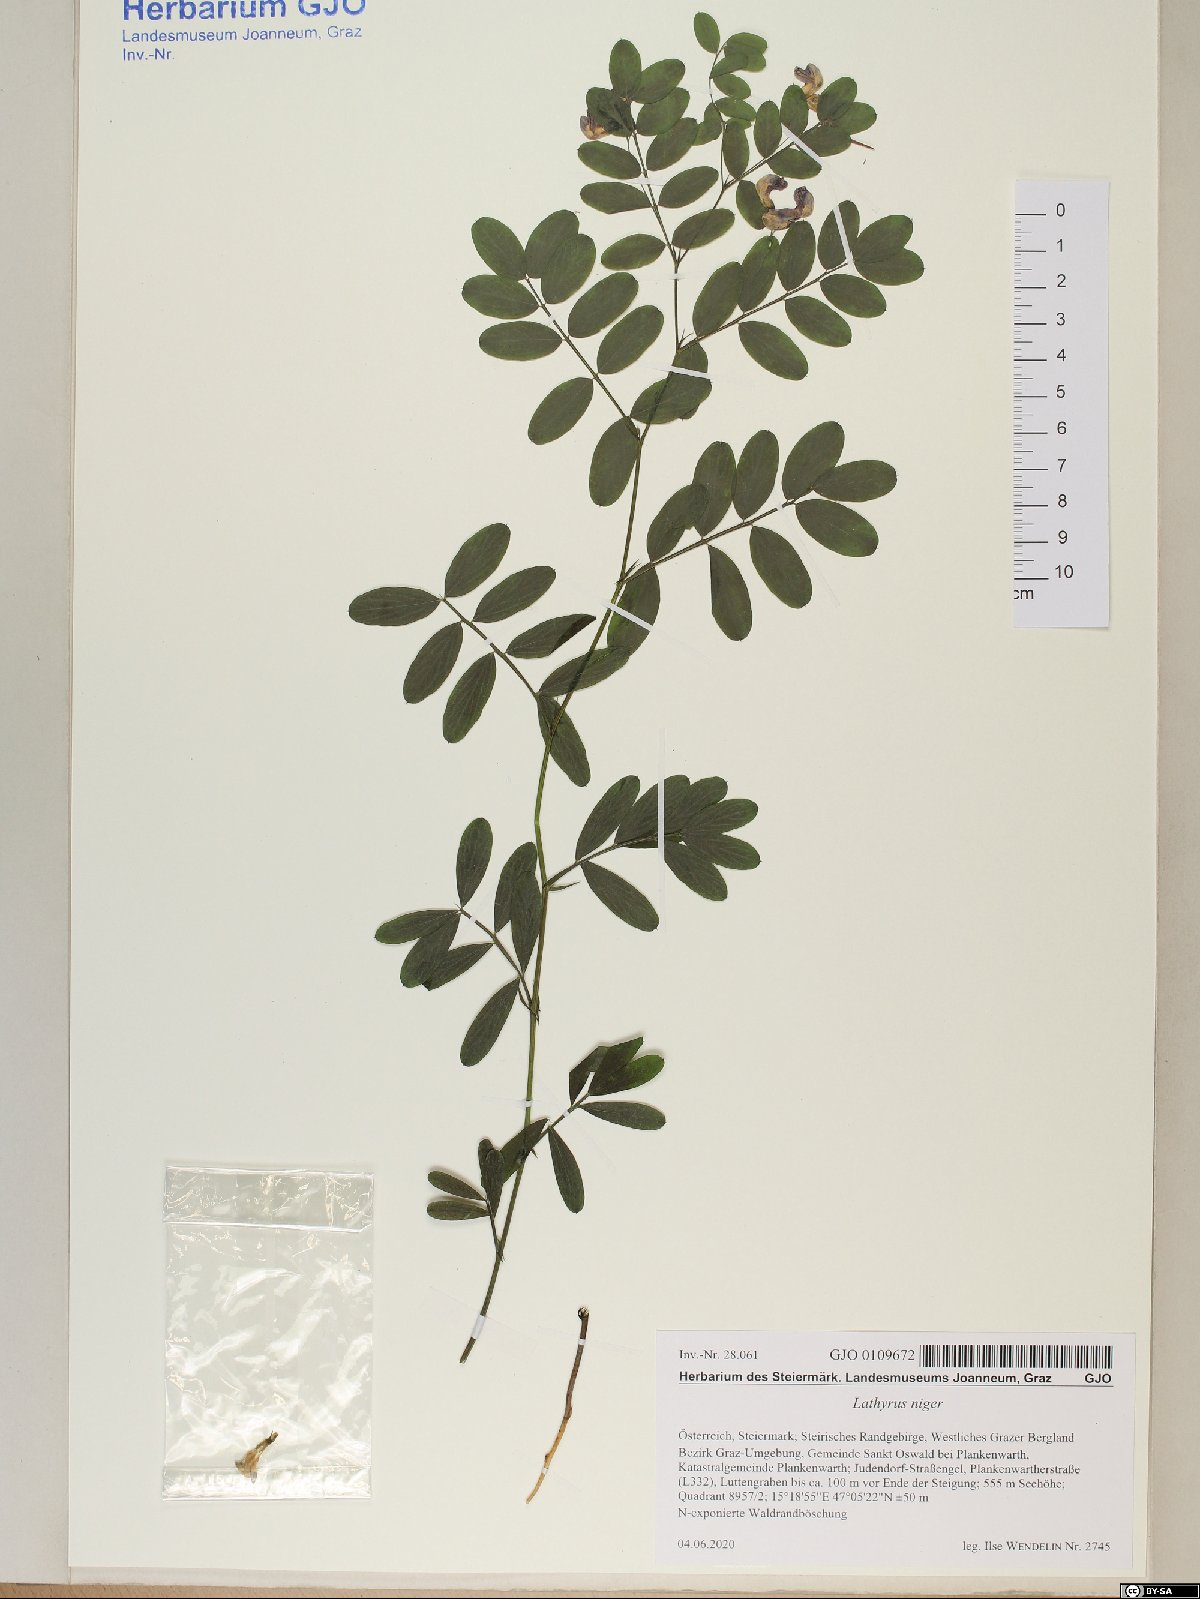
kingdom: Plantae
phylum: Tracheophyta
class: Magnoliopsida
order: Fabales
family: Fabaceae
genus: Lathyrus
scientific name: Lathyrus niger
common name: Black pea
